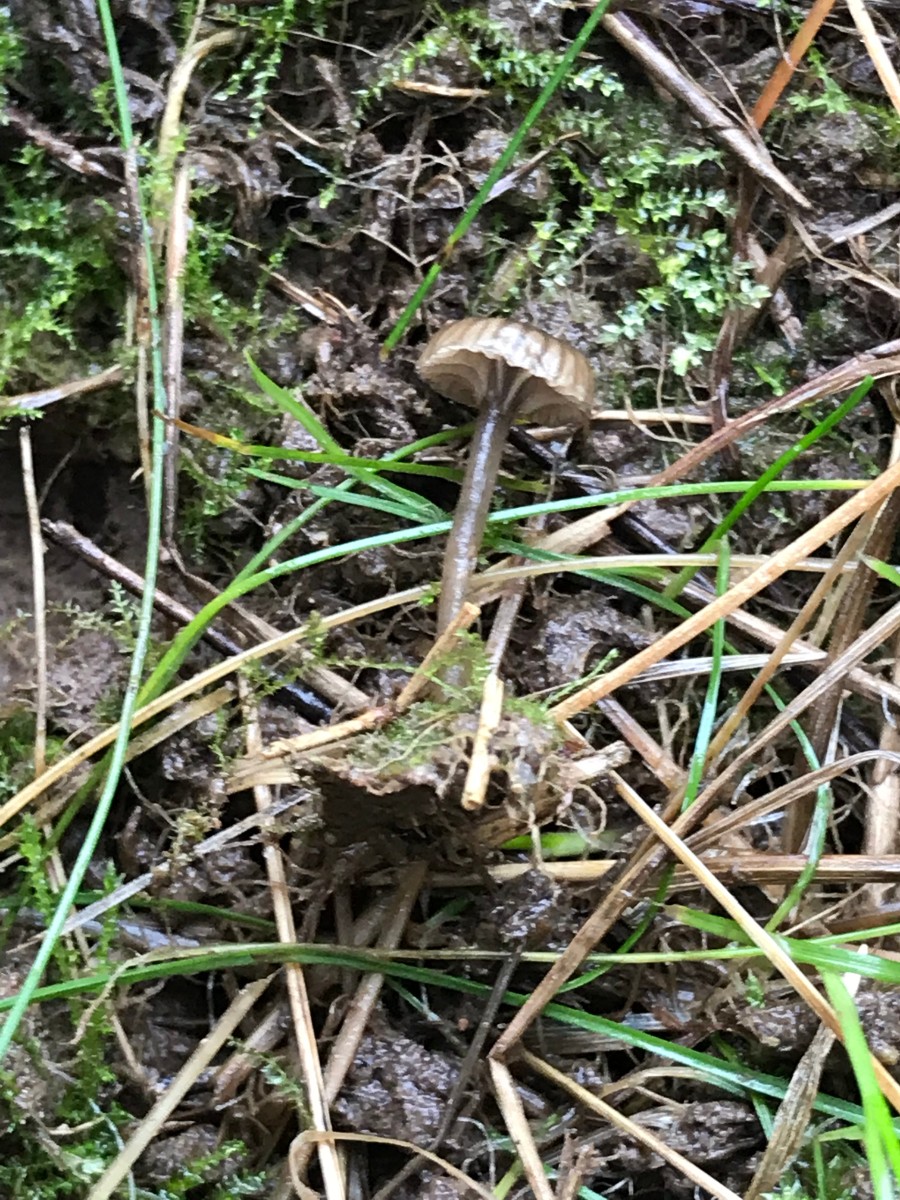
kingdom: Fungi
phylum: Basidiomycota
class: Agaricomycetes
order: Agaricales
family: Hygrophoraceae
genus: Arrhenia
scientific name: Arrhenia obscurata
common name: hede-fontænehat
